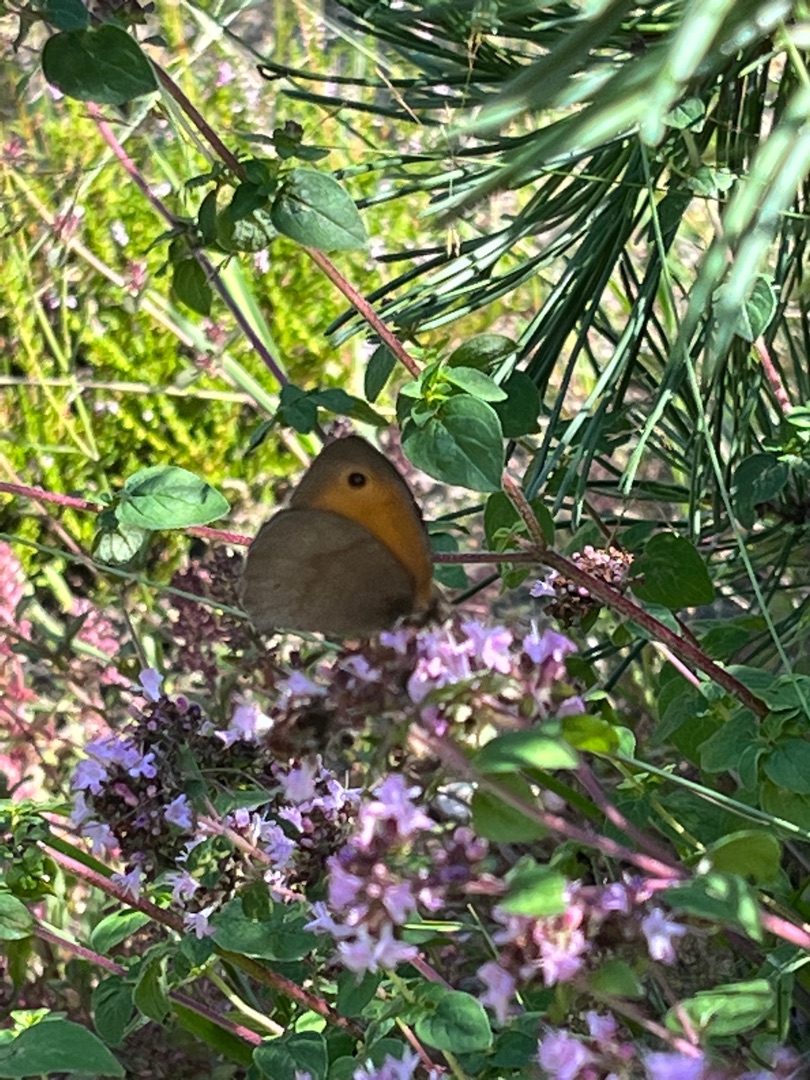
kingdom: Animalia
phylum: Arthropoda
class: Insecta
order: Lepidoptera
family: Nymphalidae
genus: Maniola
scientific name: Maniola jurtina
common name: Græsrandøje
